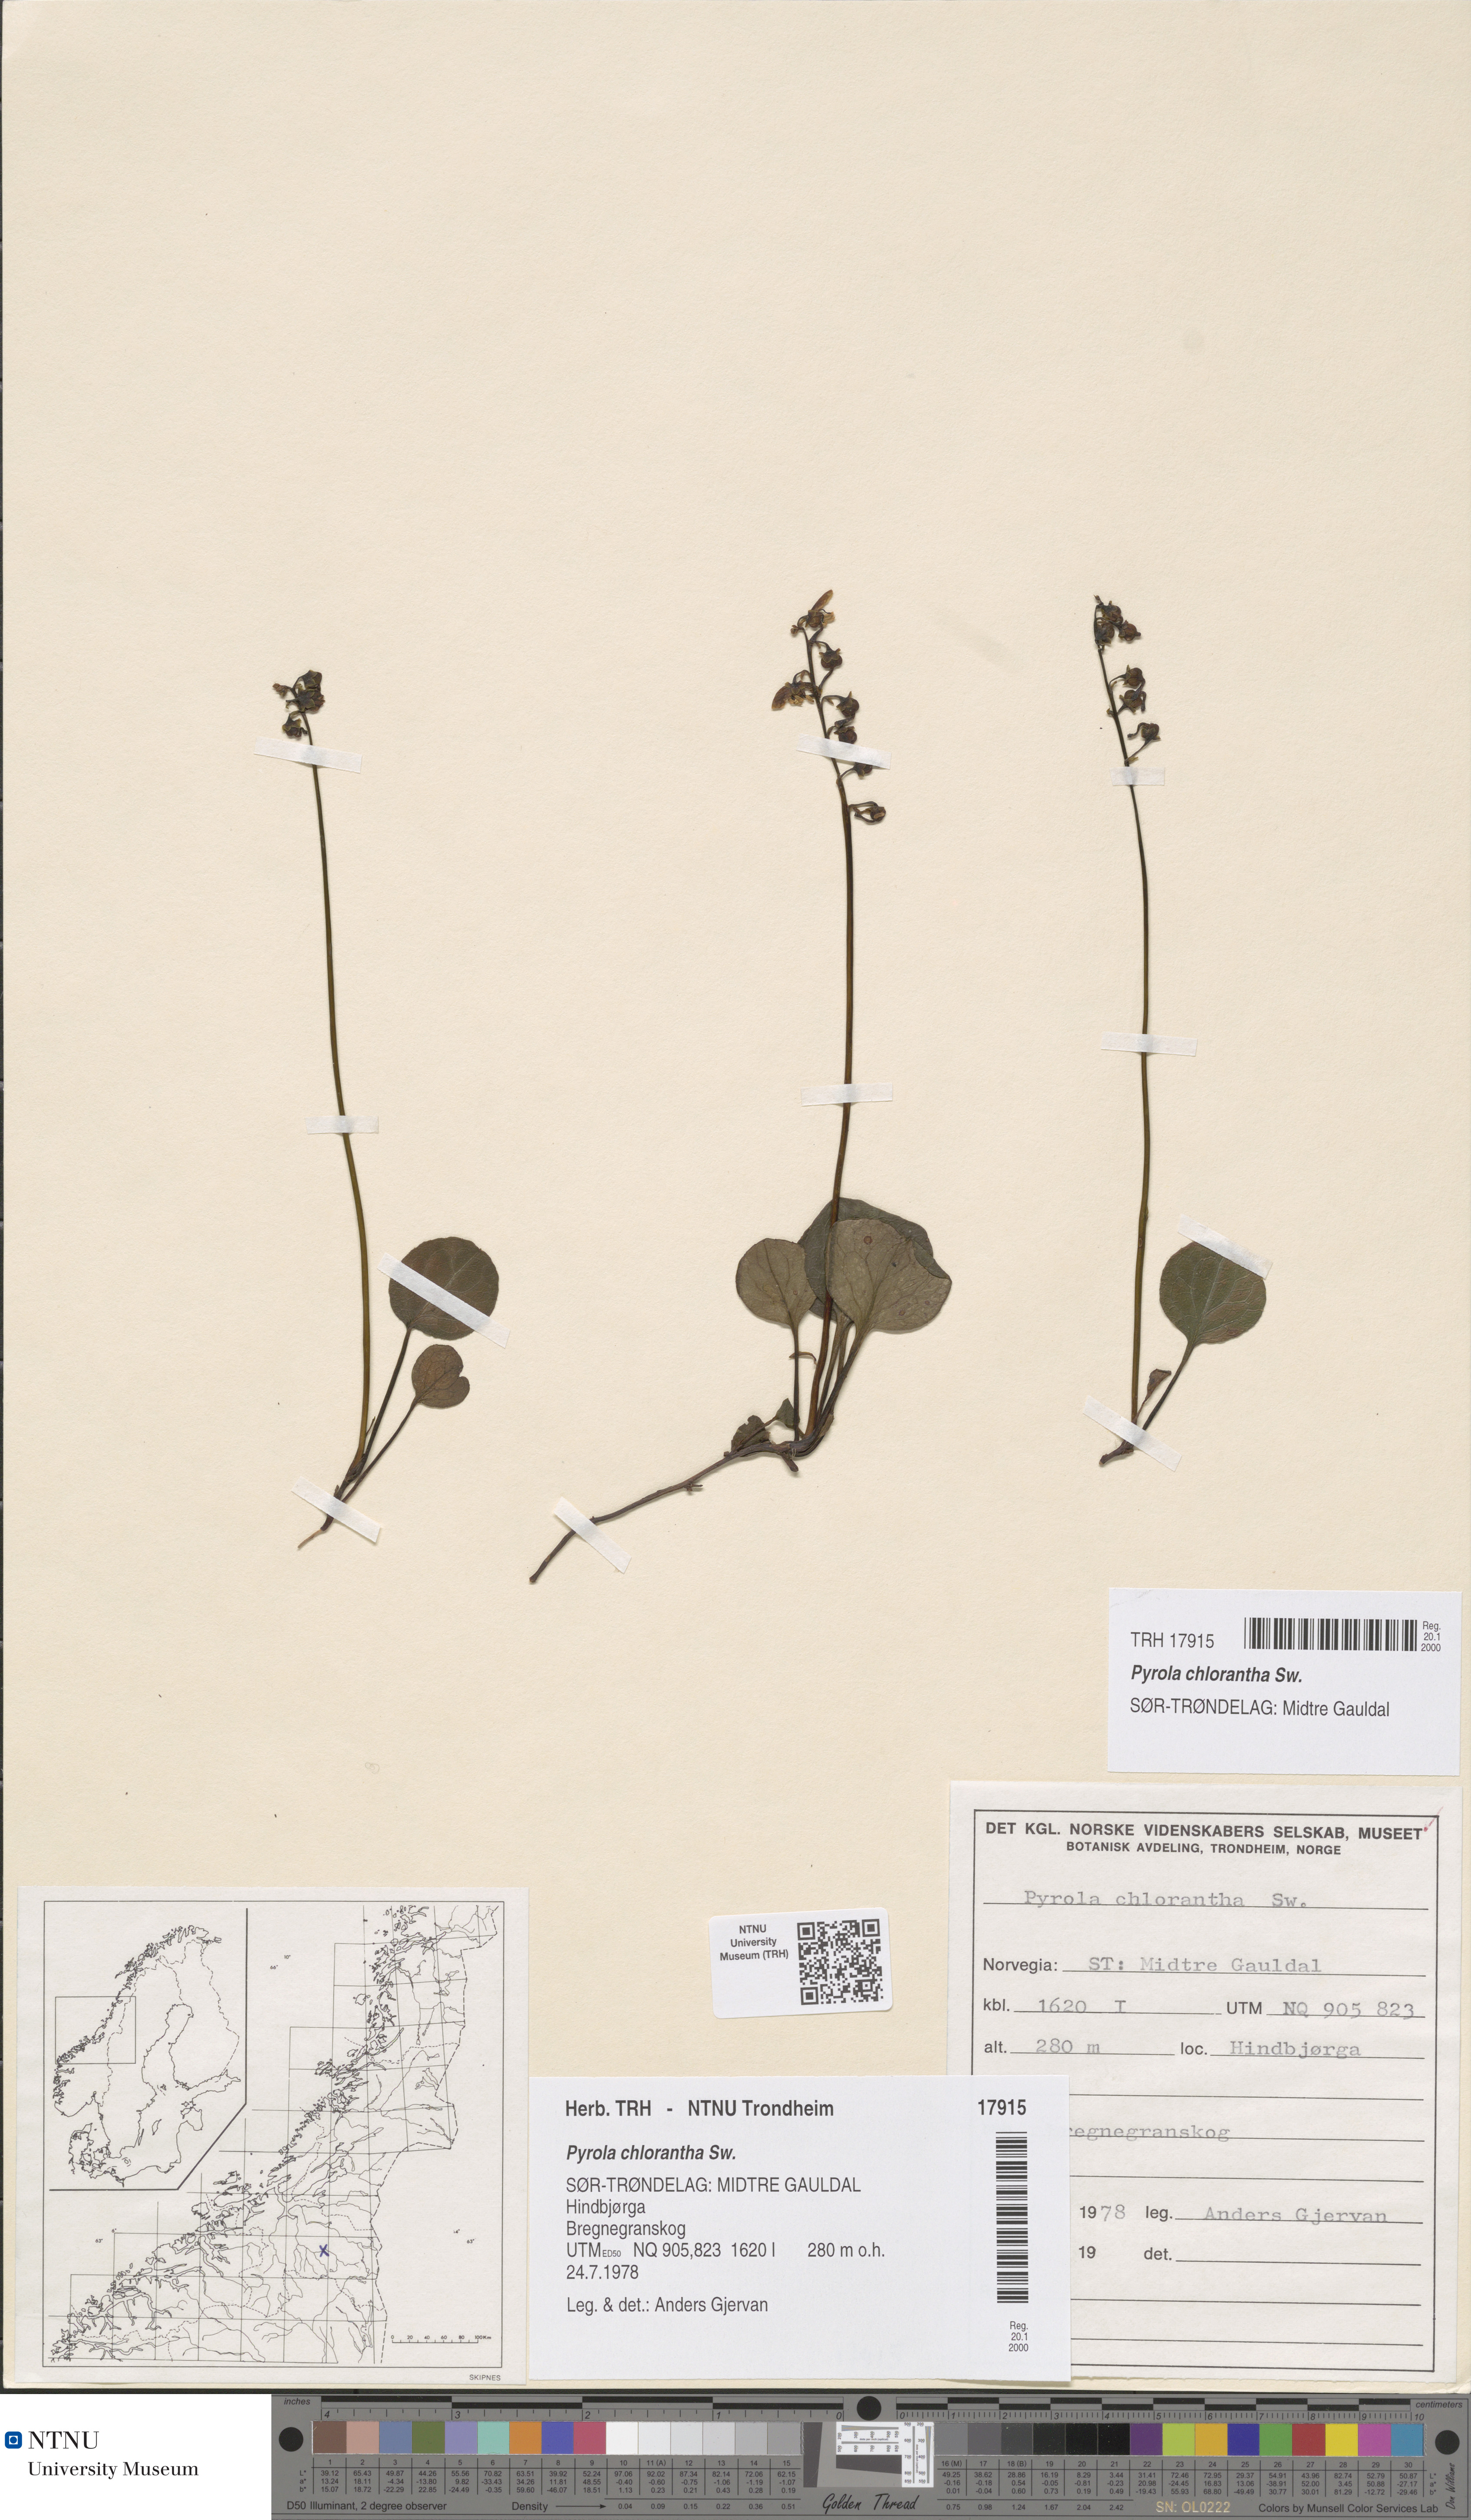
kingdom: Plantae
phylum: Tracheophyta
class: Magnoliopsida
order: Ericales
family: Ericaceae
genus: Pyrola
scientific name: Pyrola chlorantha
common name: Green wintergreen
